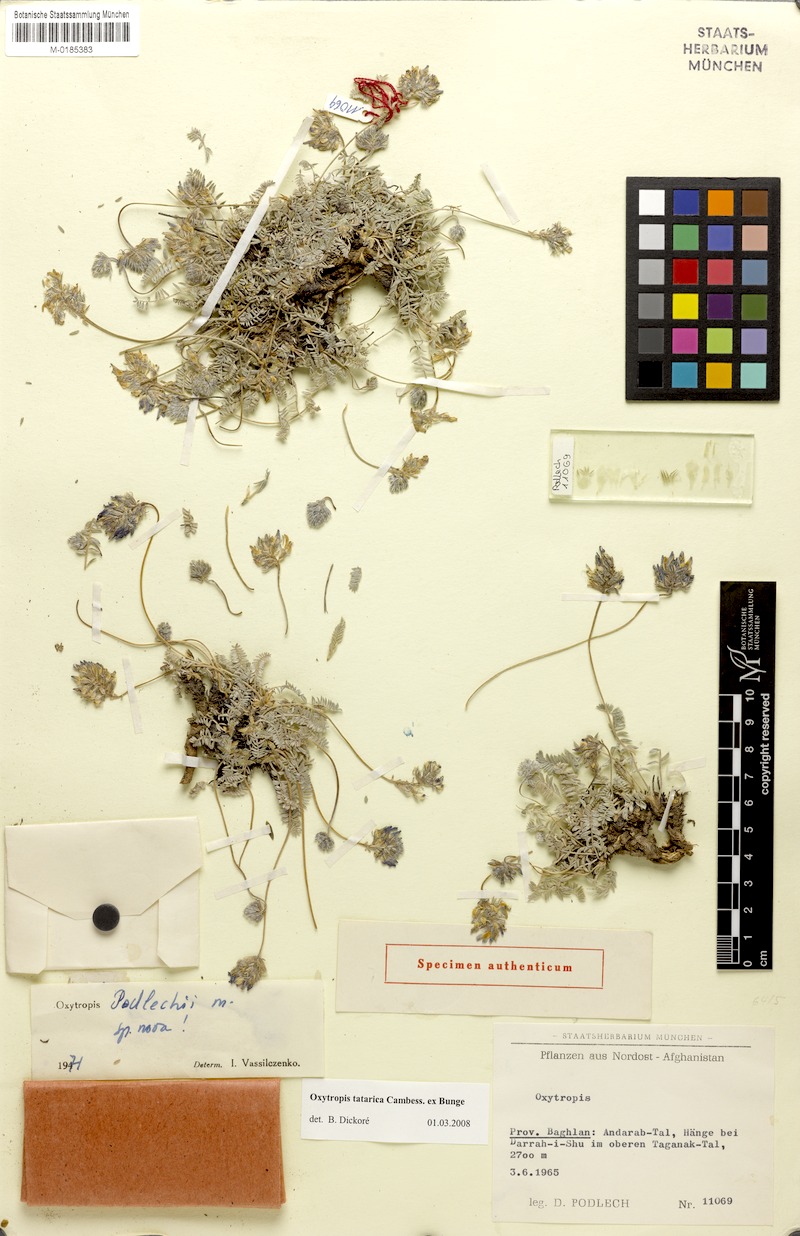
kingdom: Plantae
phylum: Tracheophyta
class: Magnoliopsida
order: Fabales
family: Fabaceae
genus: Oxytropis
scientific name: Oxytropis griffithii
